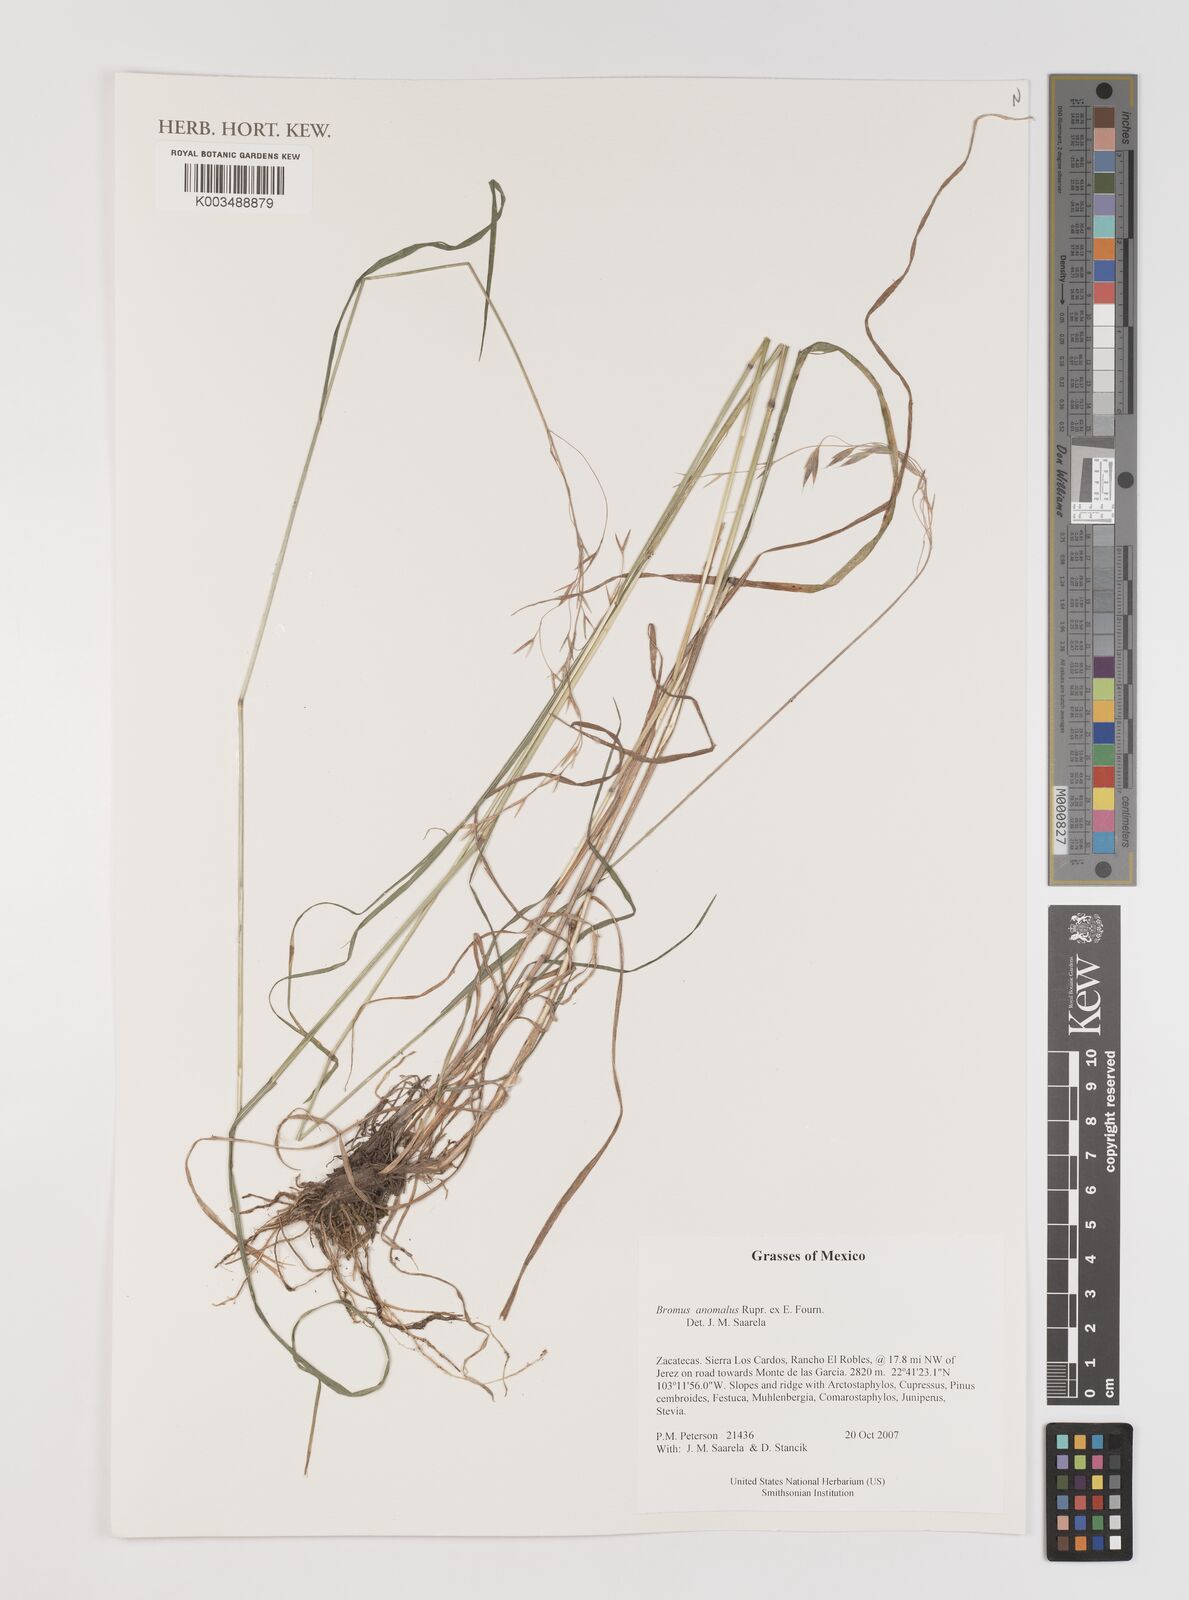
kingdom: Plantae
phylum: Tracheophyta
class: Liliopsida
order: Poales
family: Poaceae
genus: Bromus
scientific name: Bromus anomalus
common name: Nodding brome
